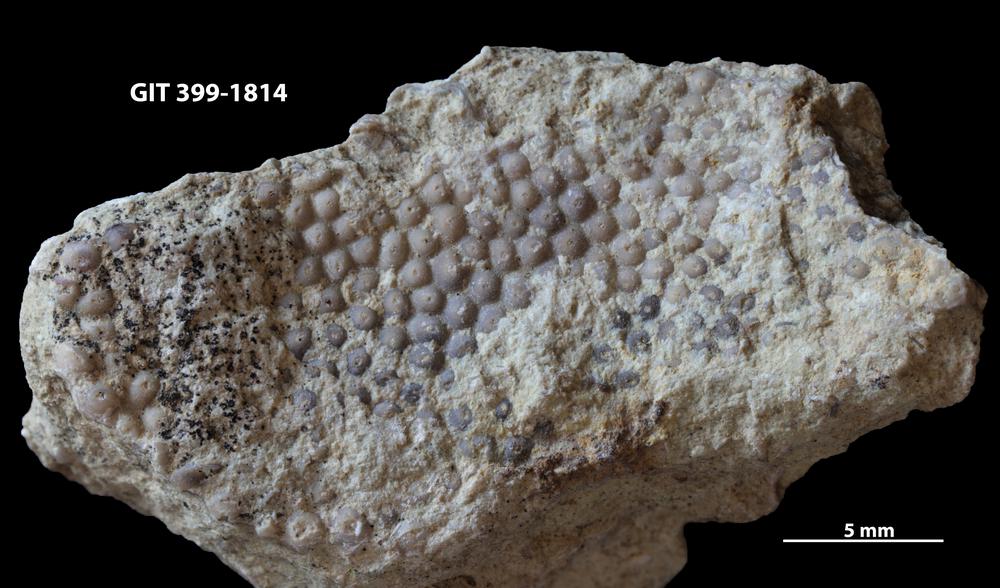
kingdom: Plantae
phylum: Chlorophyta
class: Ulvophyceae
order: Cyclocrinales
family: Cyclocrinaceae
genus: Mastopora
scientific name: Mastopora concava
